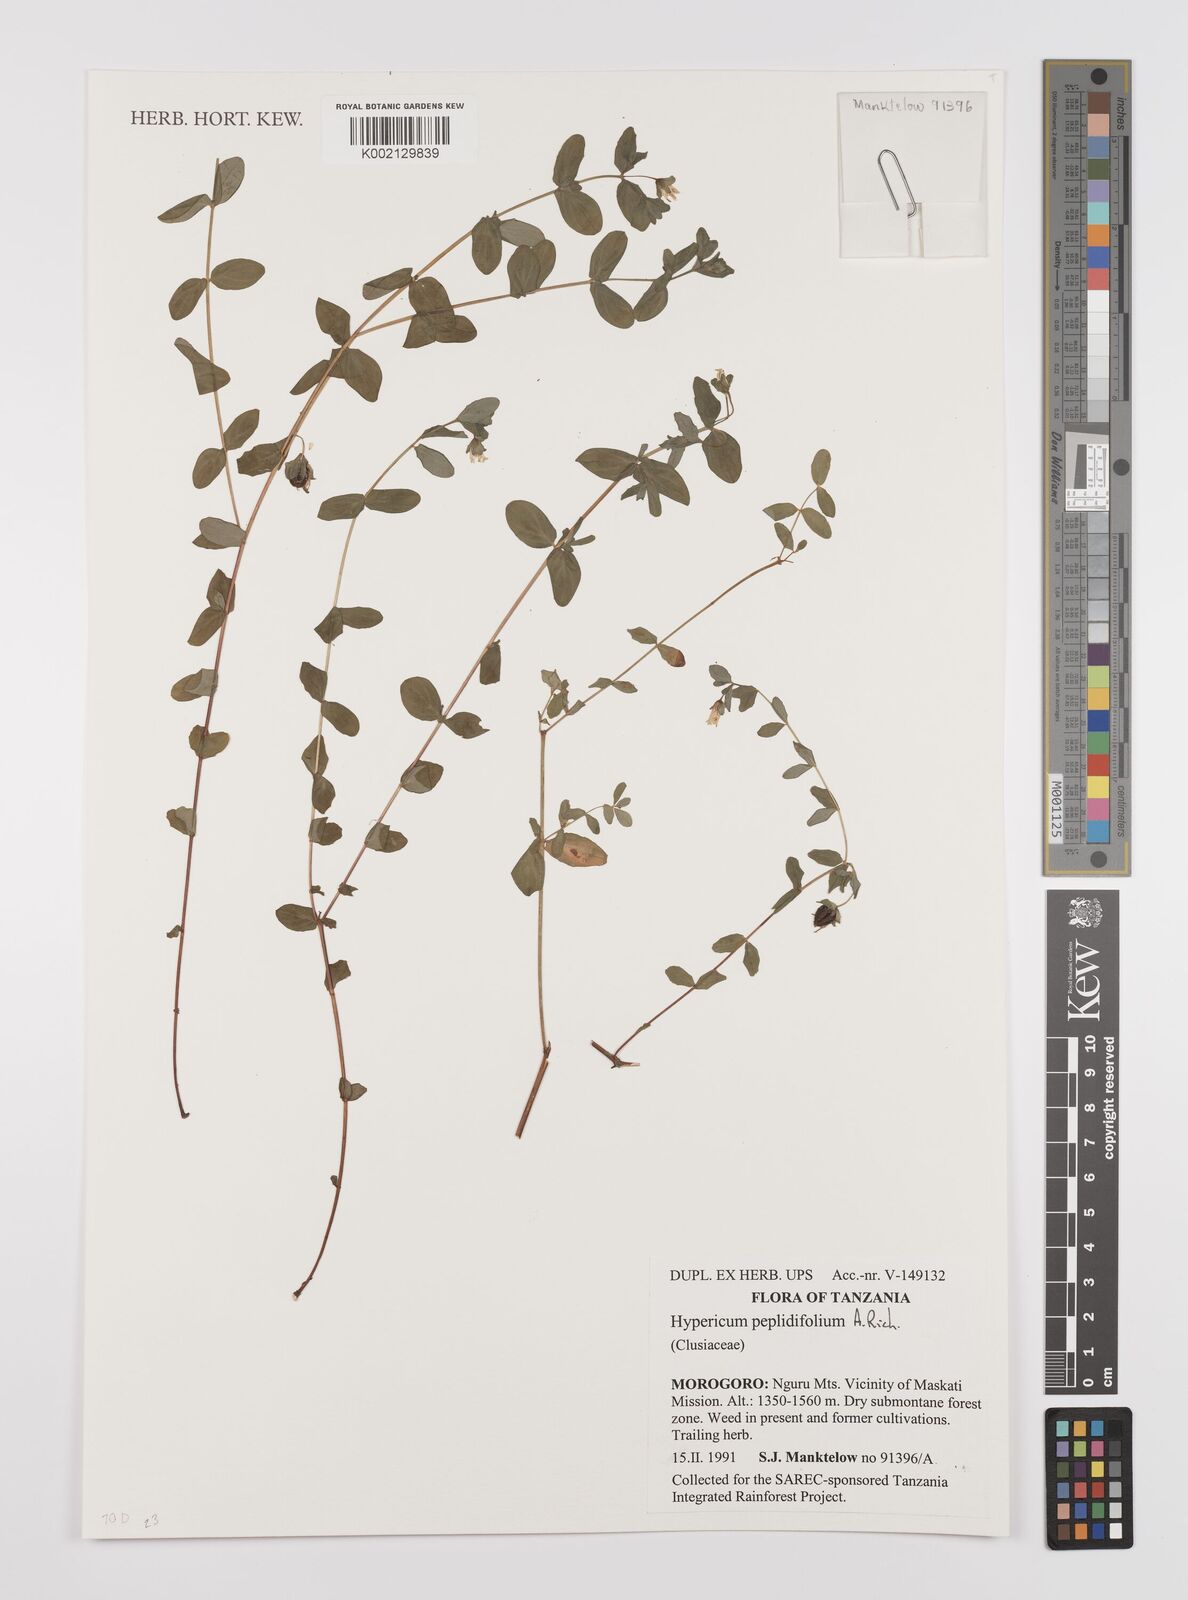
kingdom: Plantae
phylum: Tracheophyta
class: Magnoliopsida
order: Malpighiales
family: Hypericaceae
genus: Hypericum
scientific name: Hypericum peplidifolium
